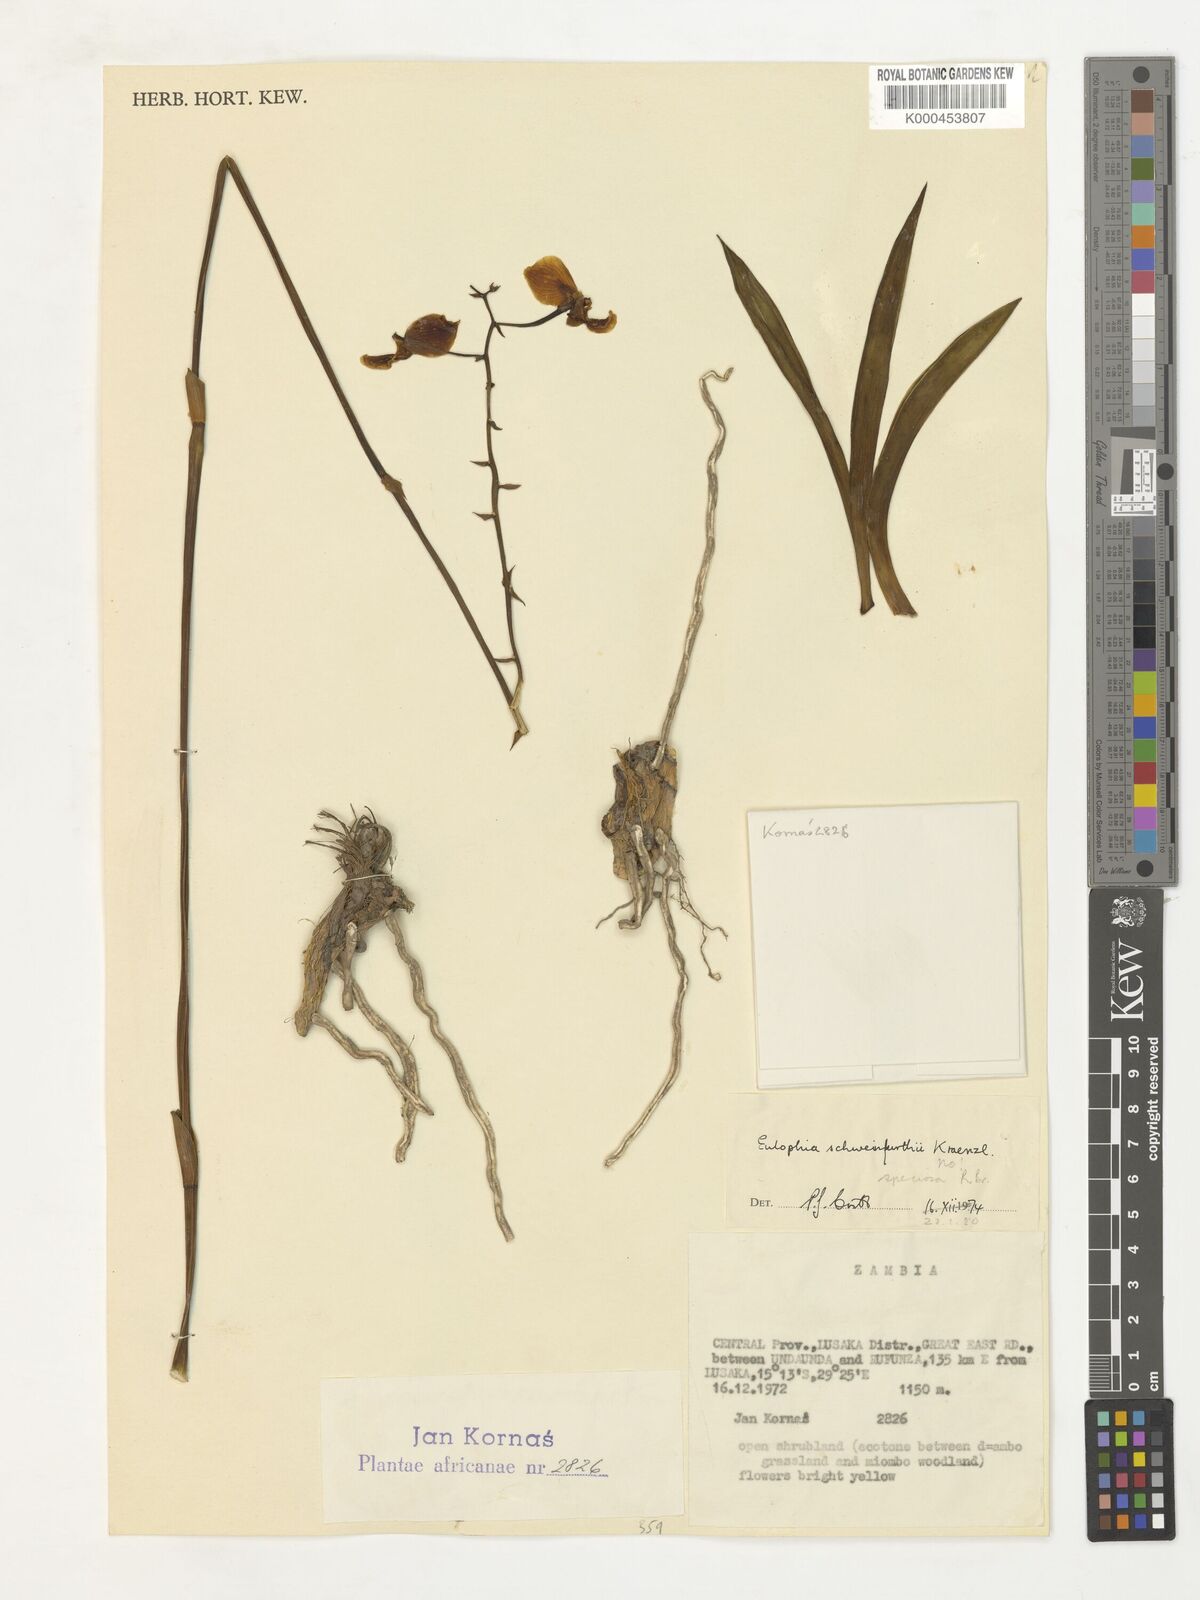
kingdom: Plantae
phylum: Tracheophyta
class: Liliopsida
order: Asparagales
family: Orchidaceae
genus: Eulophia
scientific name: Eulophia speciosa
